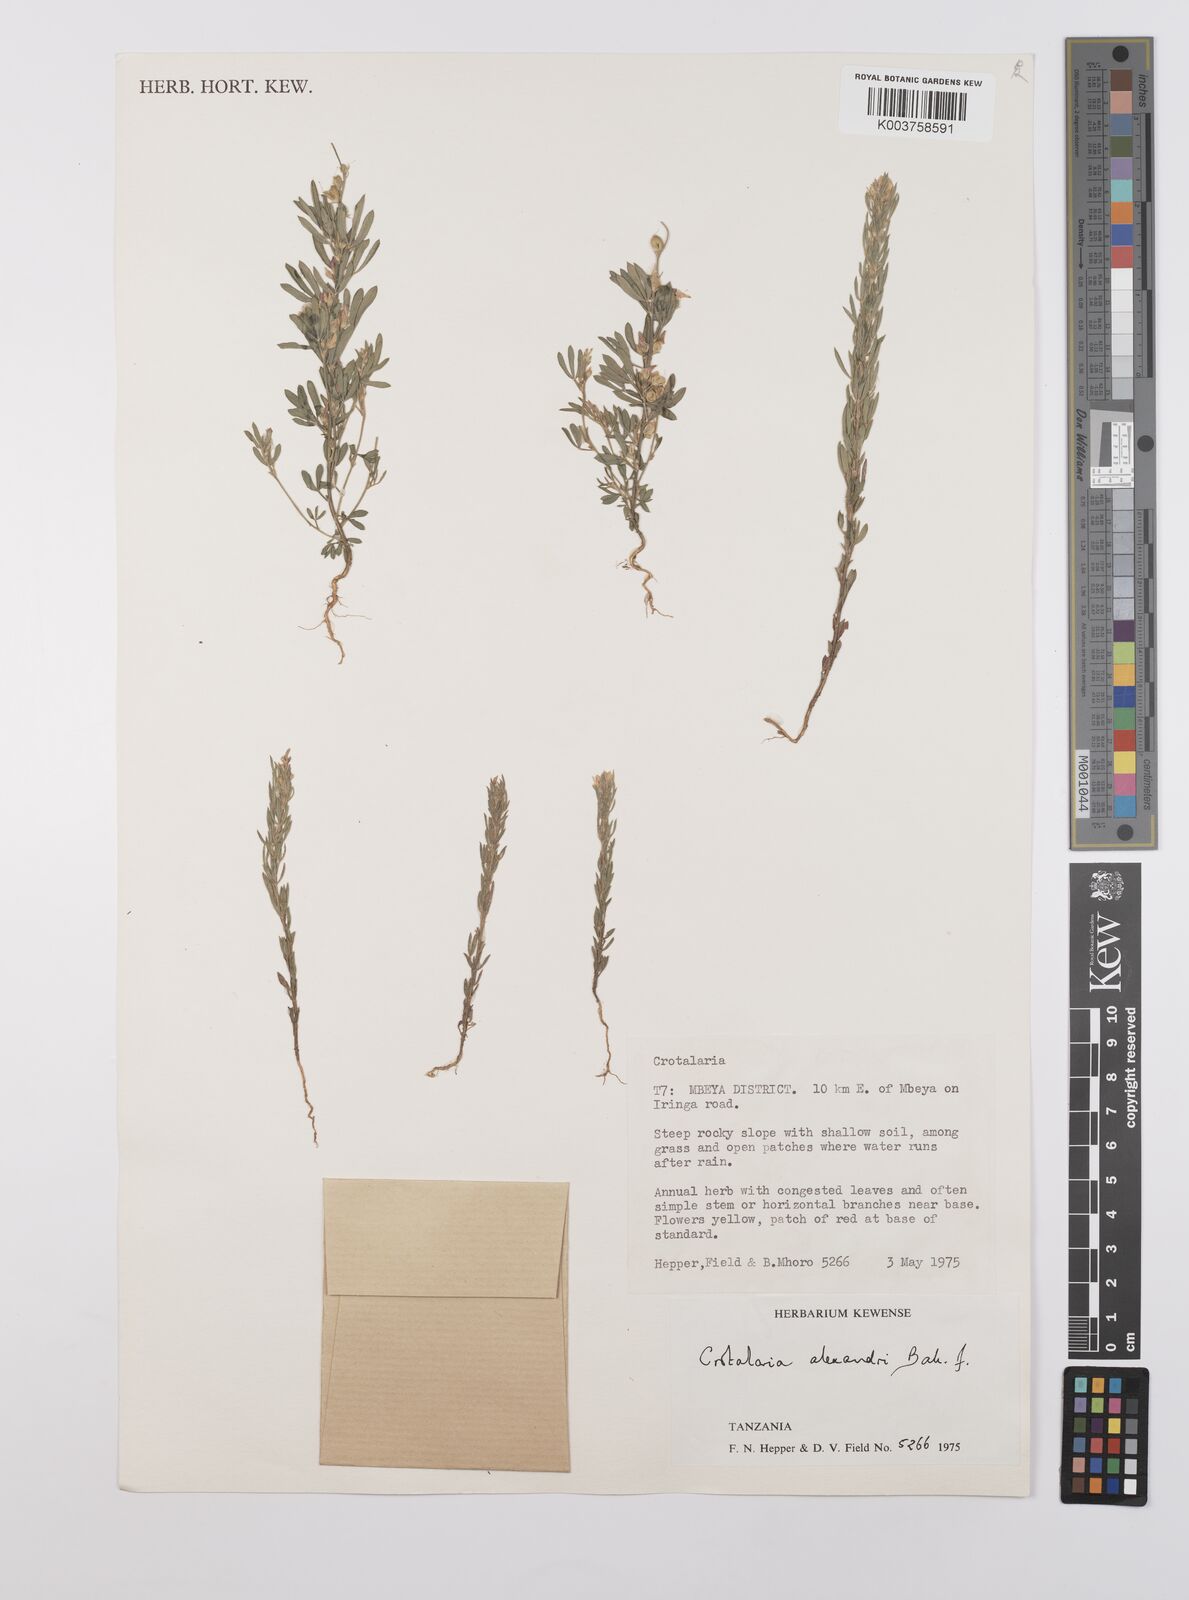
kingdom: Plantae
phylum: Tracheophyta
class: Magnoliopsida
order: Fabales
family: Fabaceae
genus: Crotalaria
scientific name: Crotalaria alexandri
